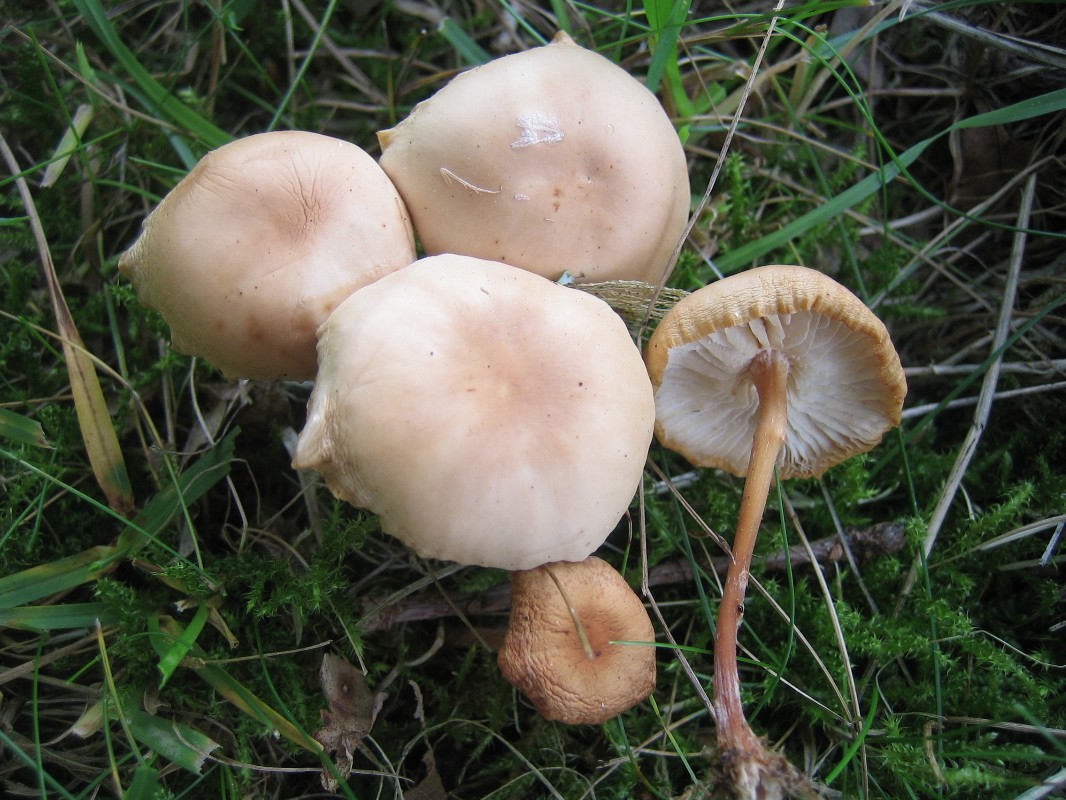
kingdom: Fungi
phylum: Basidiomycota
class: Agaricomycetes
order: Agaricales
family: Marasmiaceae
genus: Marasmius
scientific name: Marasmius oreades
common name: elledans-bruskhat
